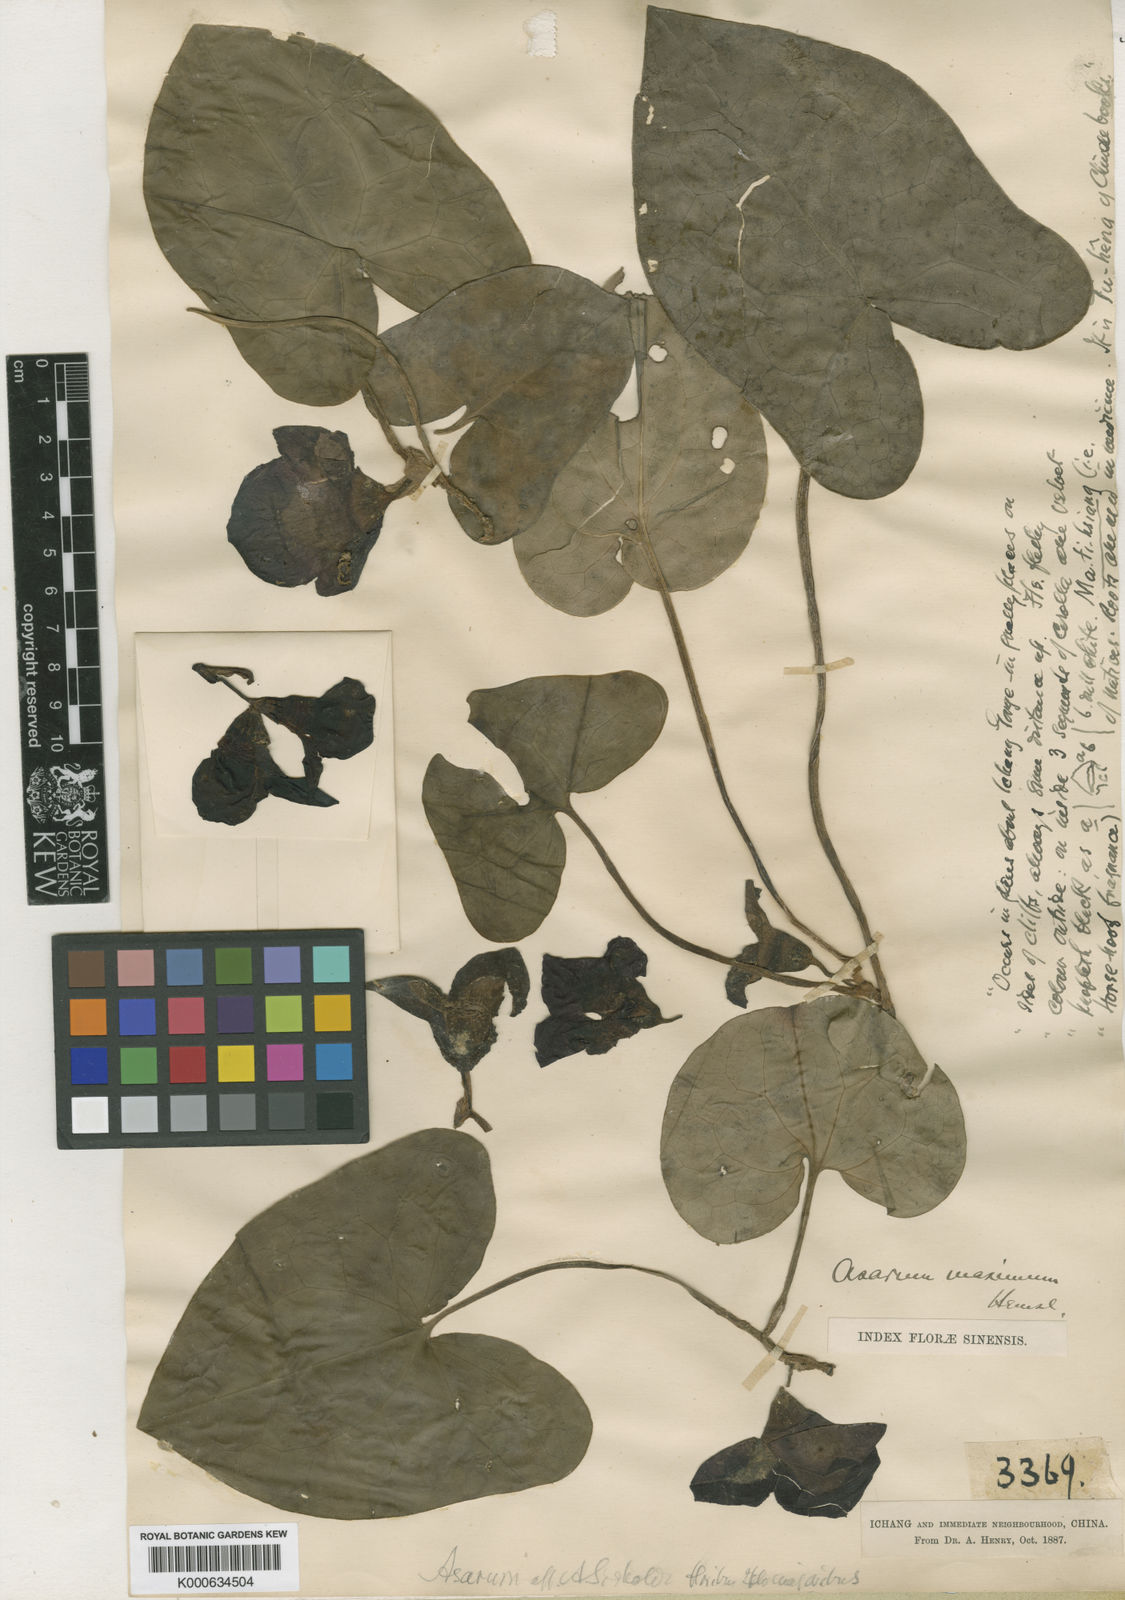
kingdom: Plantae
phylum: Tracheophyta
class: Magnoliopsida
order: Piperales
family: Aristolochiaceae
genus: Asarum
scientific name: Asarum maximum
